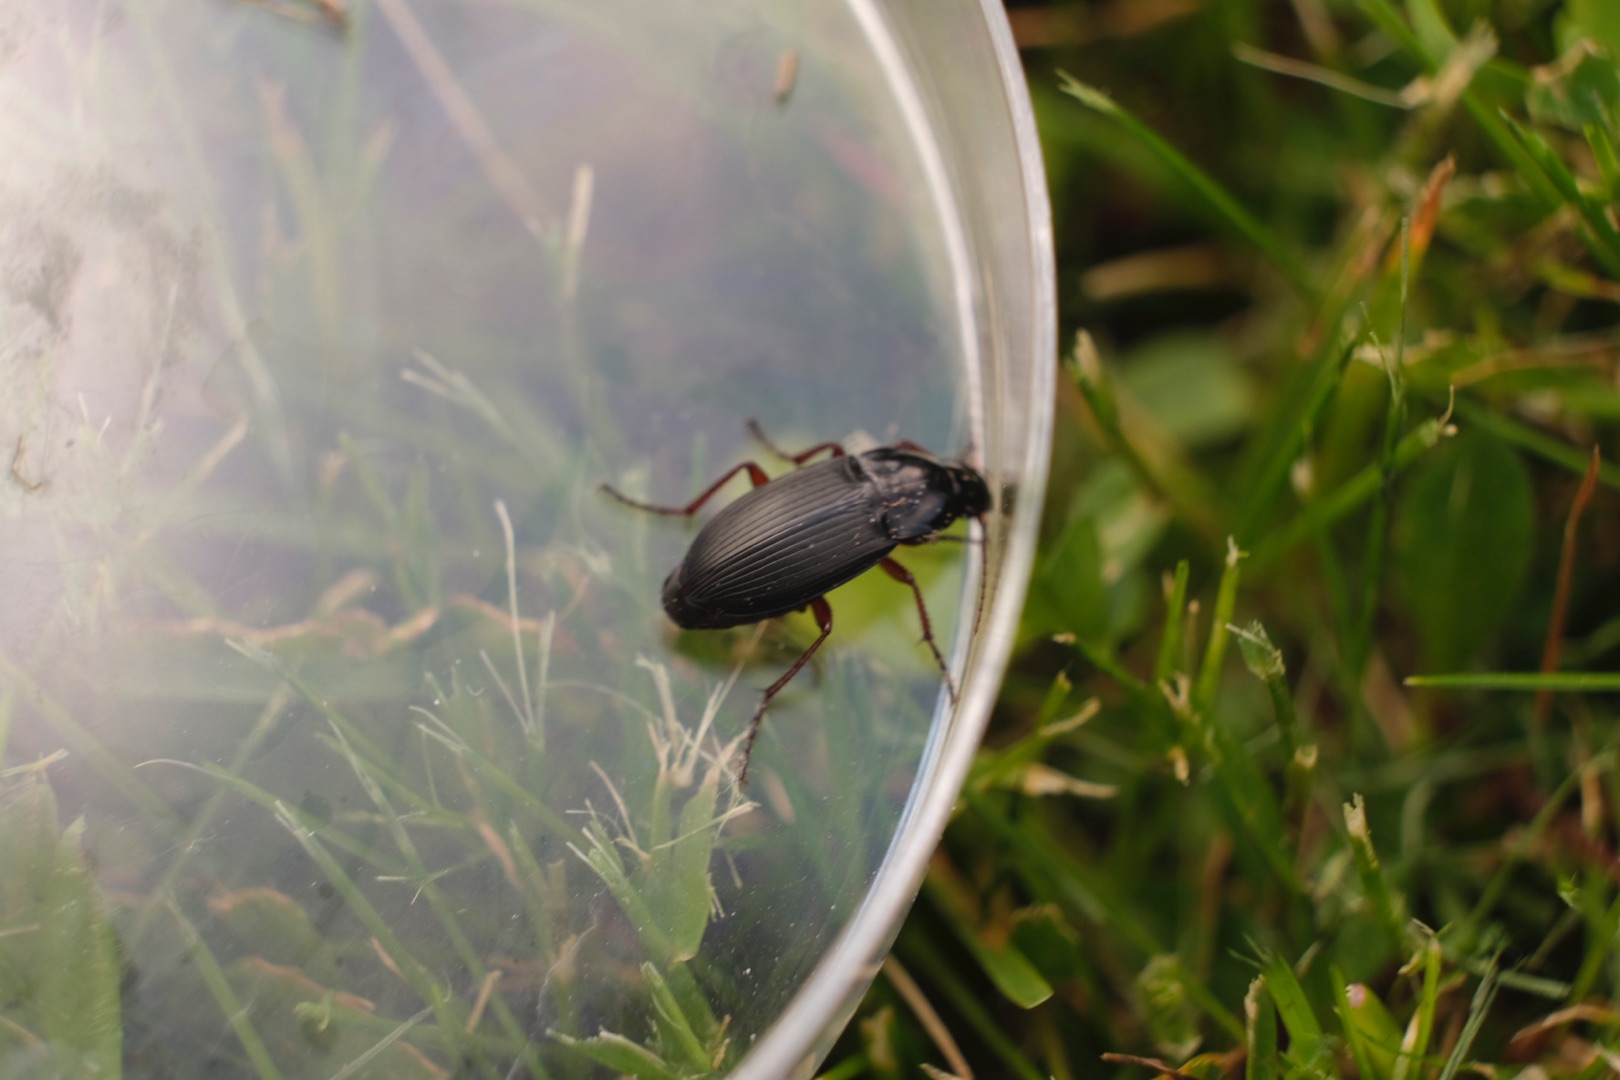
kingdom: Animalia
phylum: Arthropoda
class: Insecta
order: Coleoptera
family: Carabidae
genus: Calathus
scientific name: Calathus fuscipes
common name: Stor torpedoløber
